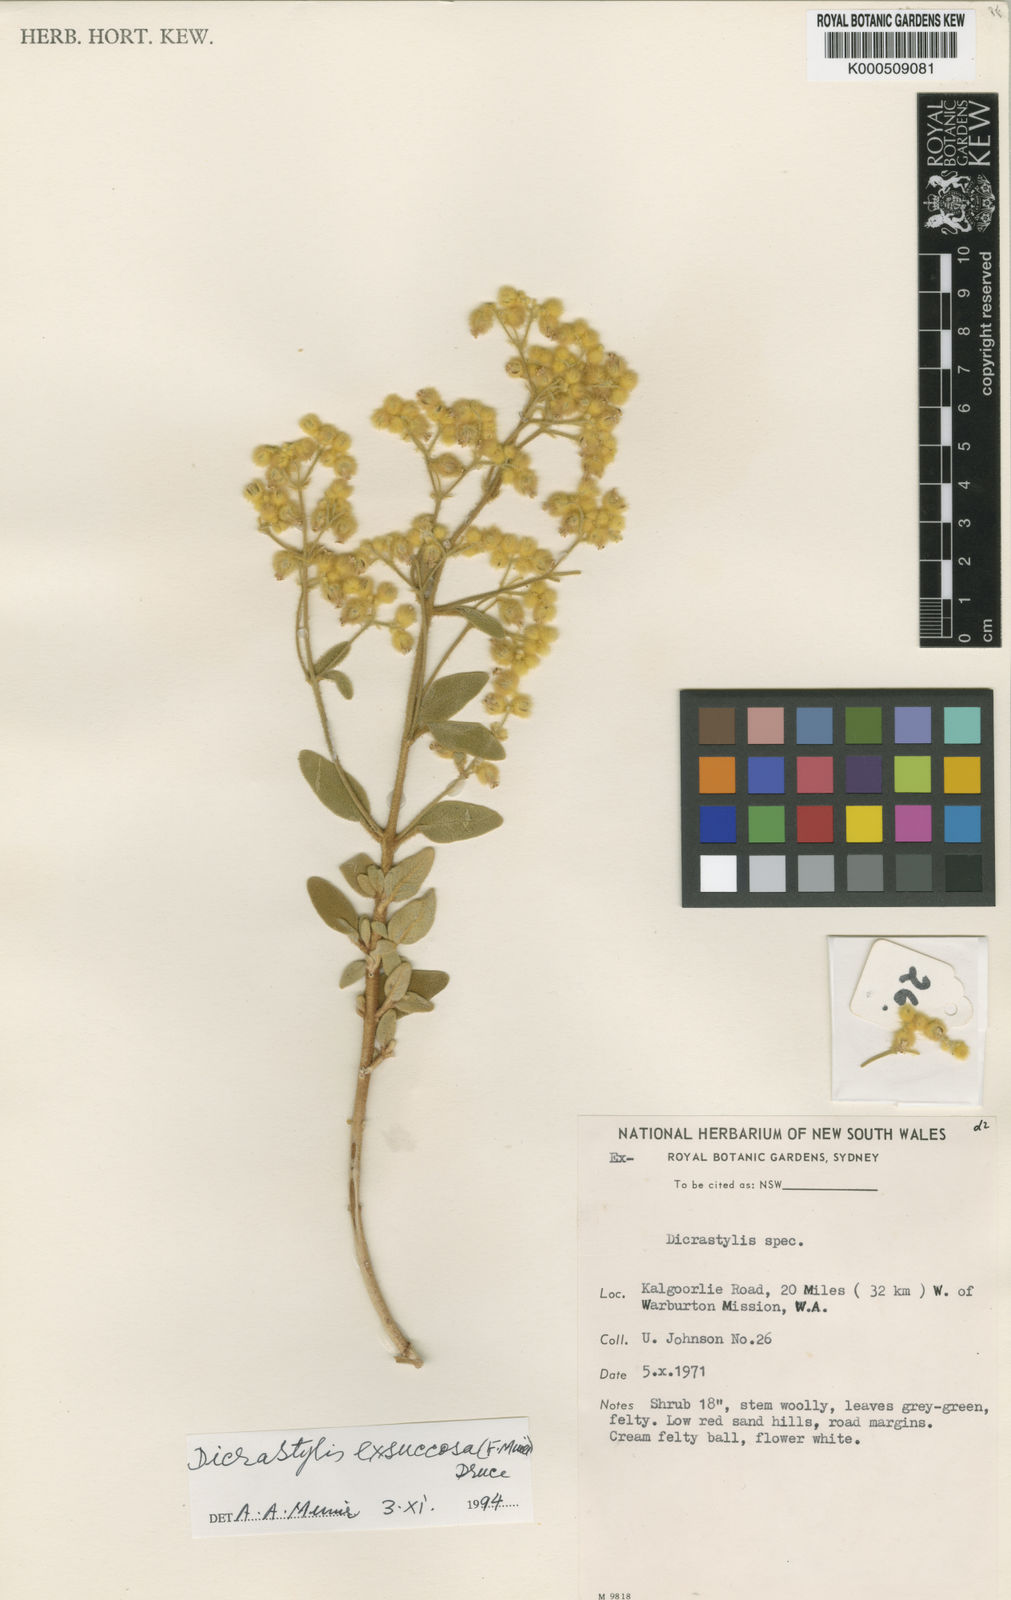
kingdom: Plantae
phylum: Tracheophyta
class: Magnoliopsida
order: Lamiales
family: Lamiaceae
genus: Dicrastylis
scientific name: Dicrastylis exsuccosa
